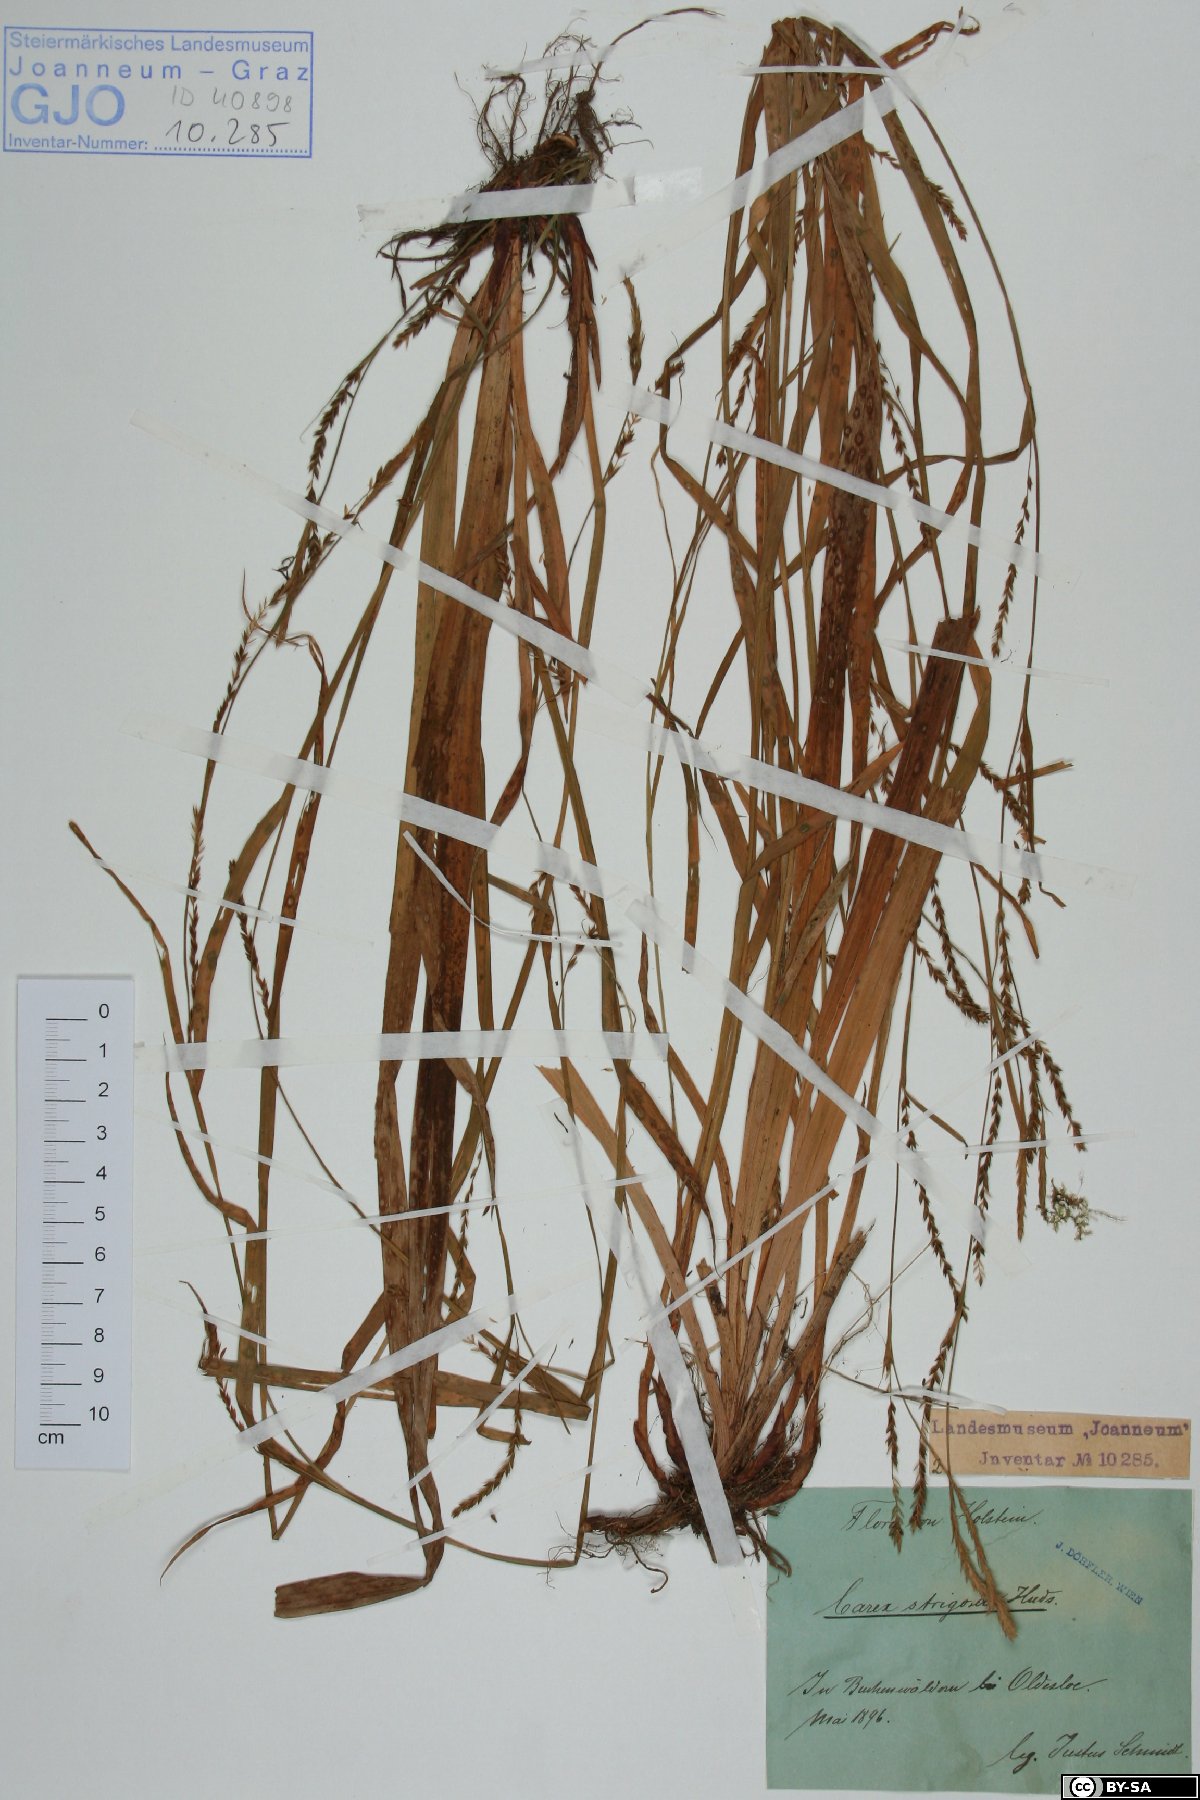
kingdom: Plantae
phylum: Tracheophyta
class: Liliopsida
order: Poales
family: Cyperaceae
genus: Carex
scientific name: Carex strigosa
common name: Thin-spiked wood-sedge
